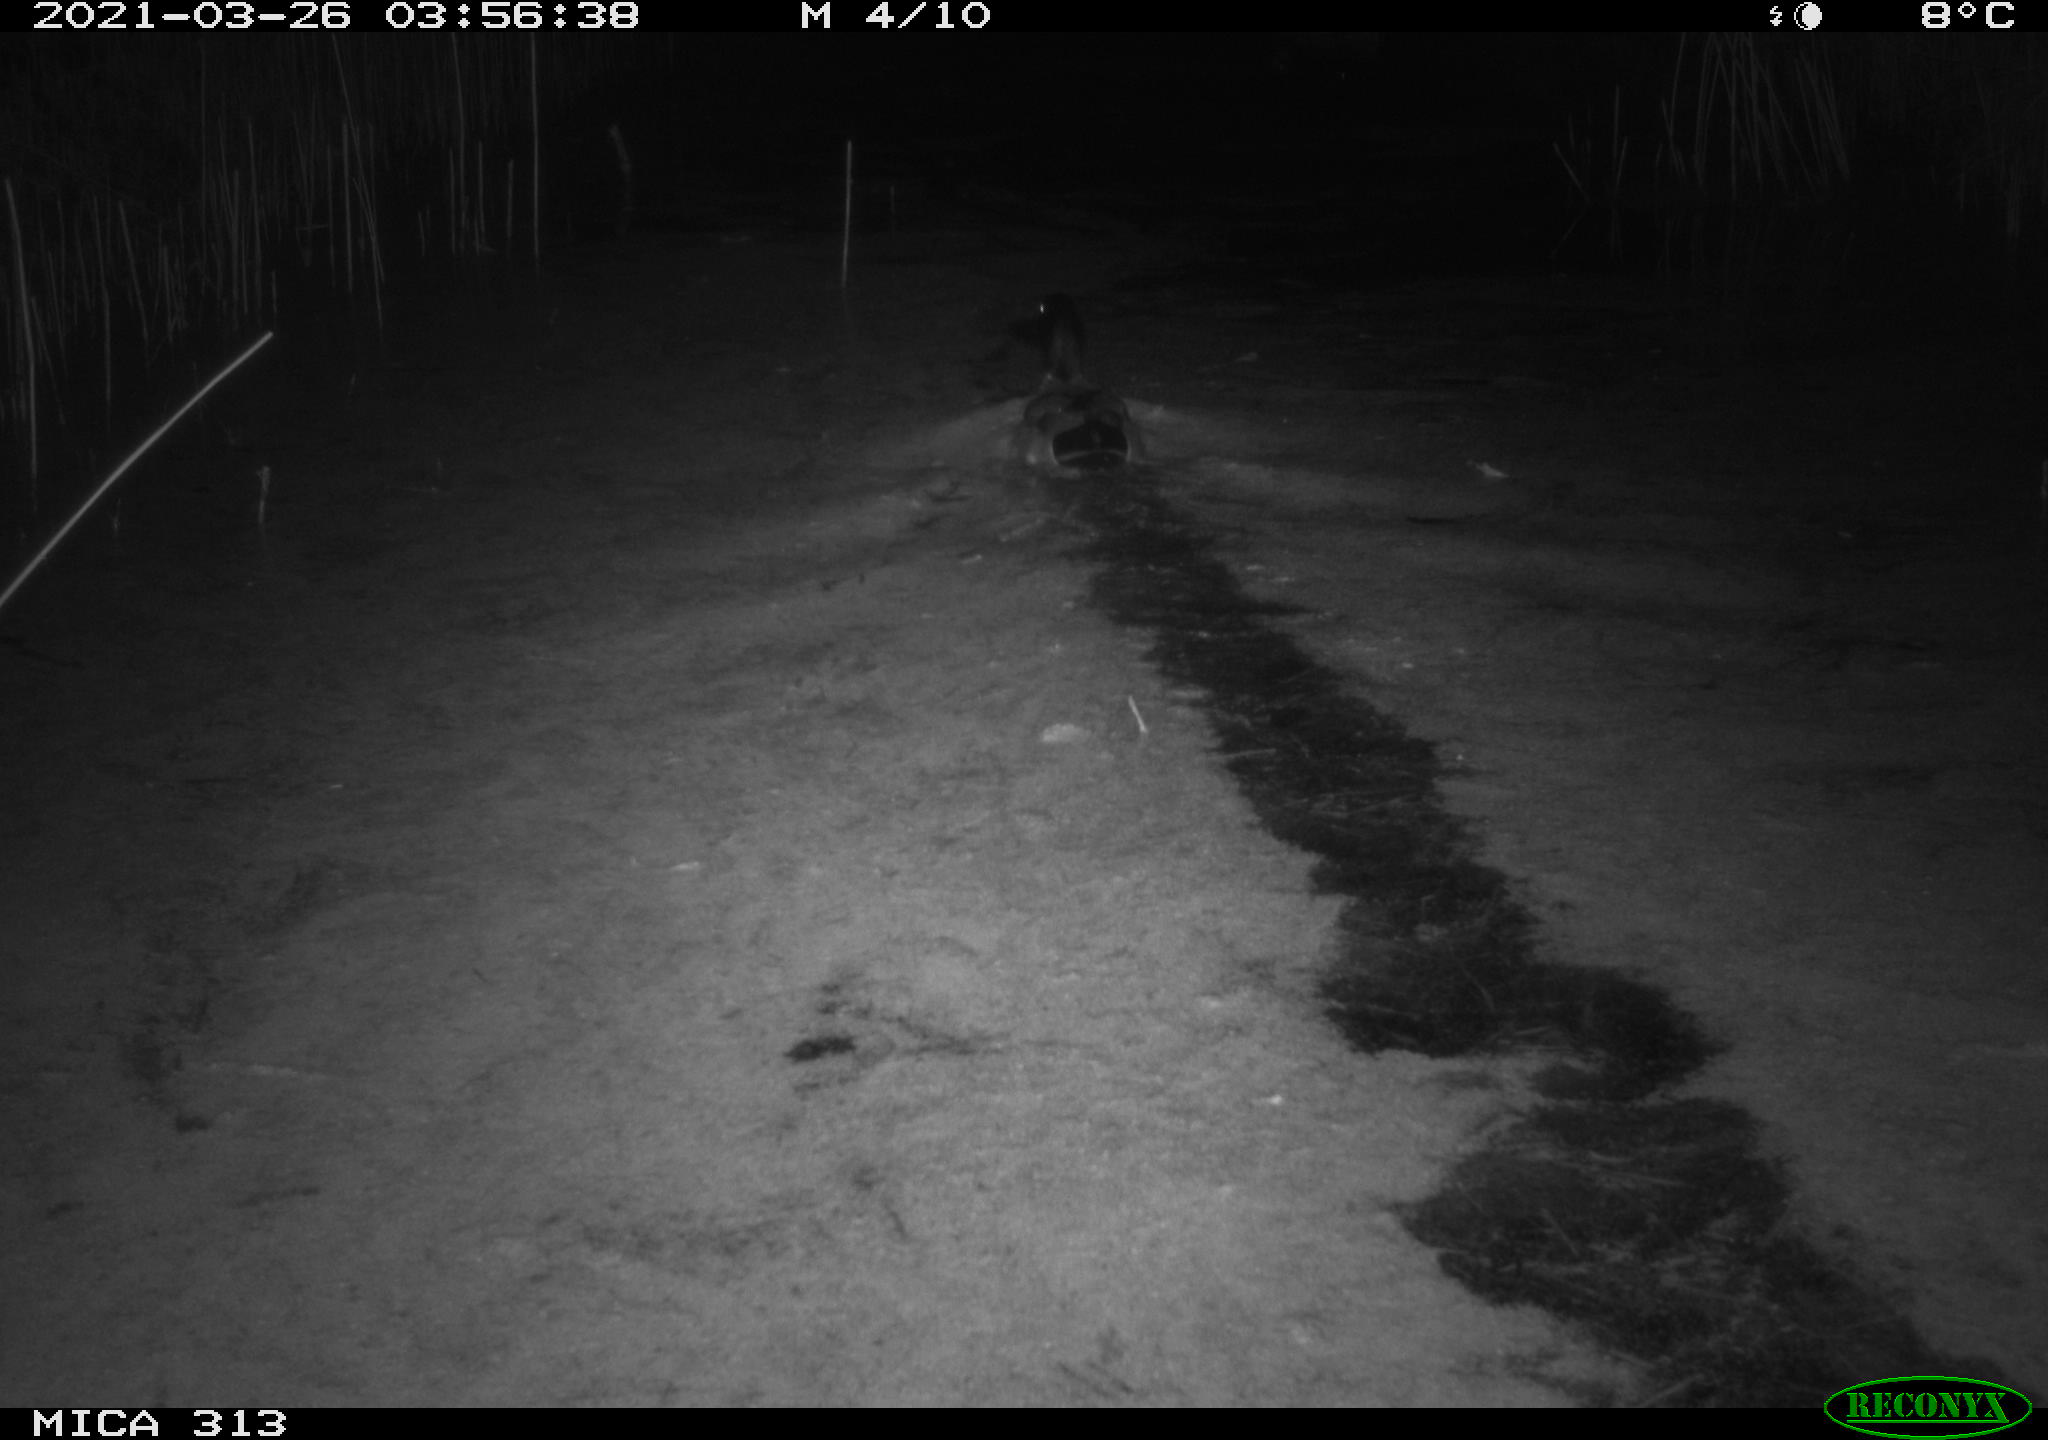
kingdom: Animalia
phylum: Chordata
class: Aves
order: Anseriformes
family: Anatidae
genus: Anas
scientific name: Anas platyrhynchos
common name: Mallard
